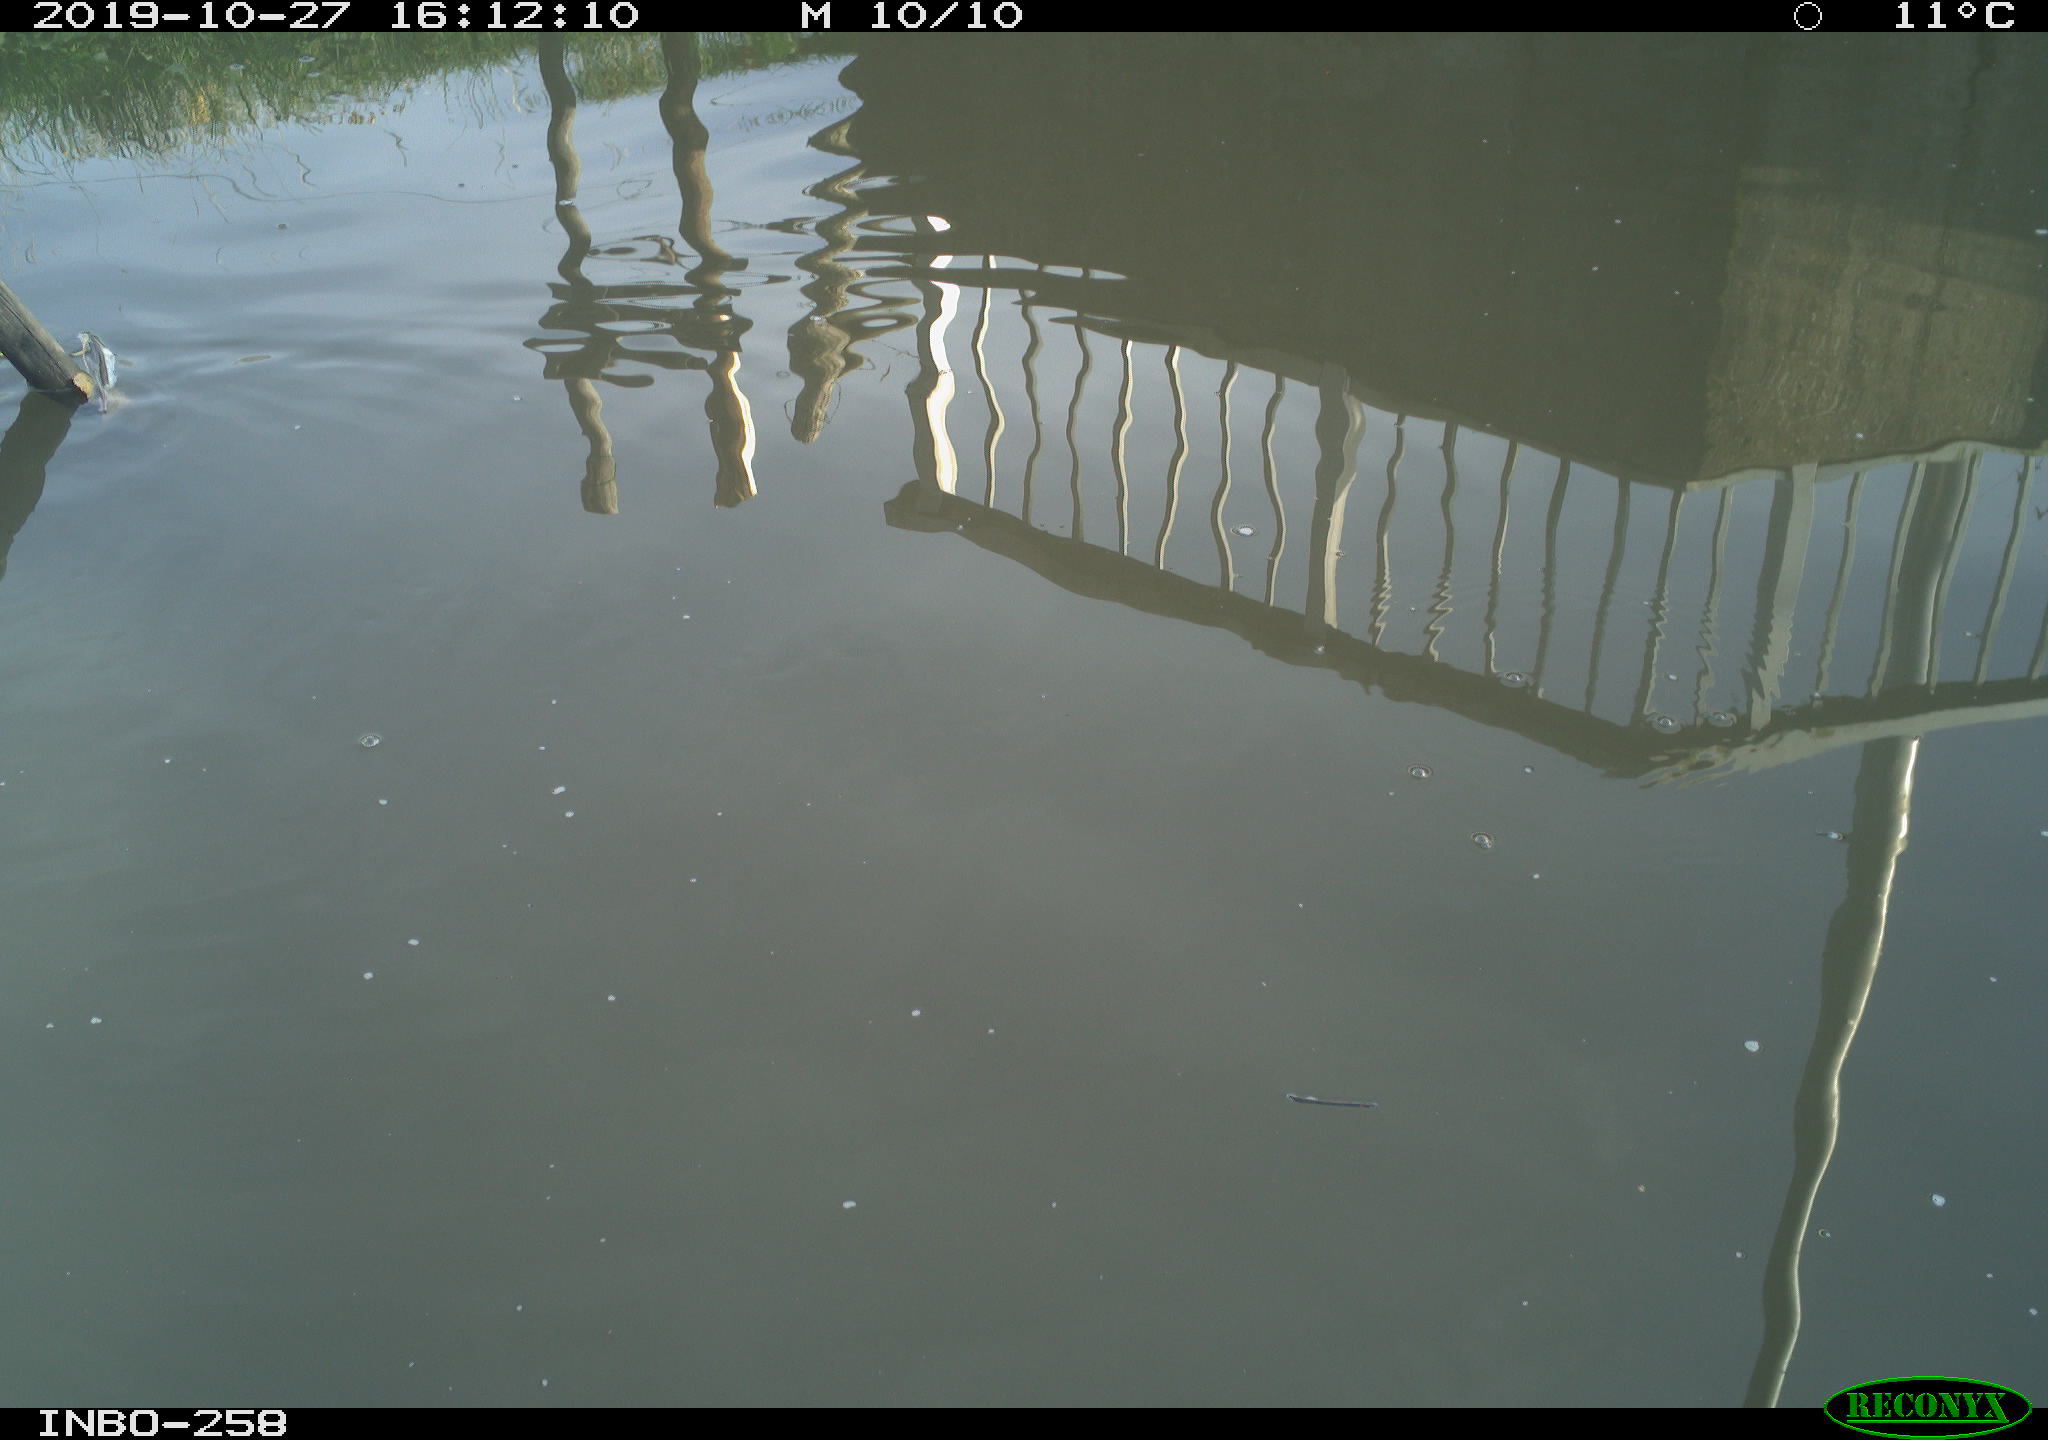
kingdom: Animalia
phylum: Chordata
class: Aves
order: Gruiformes
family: Rallidae
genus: Gallinula
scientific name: Gallinula chloropus
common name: Common moorhen
